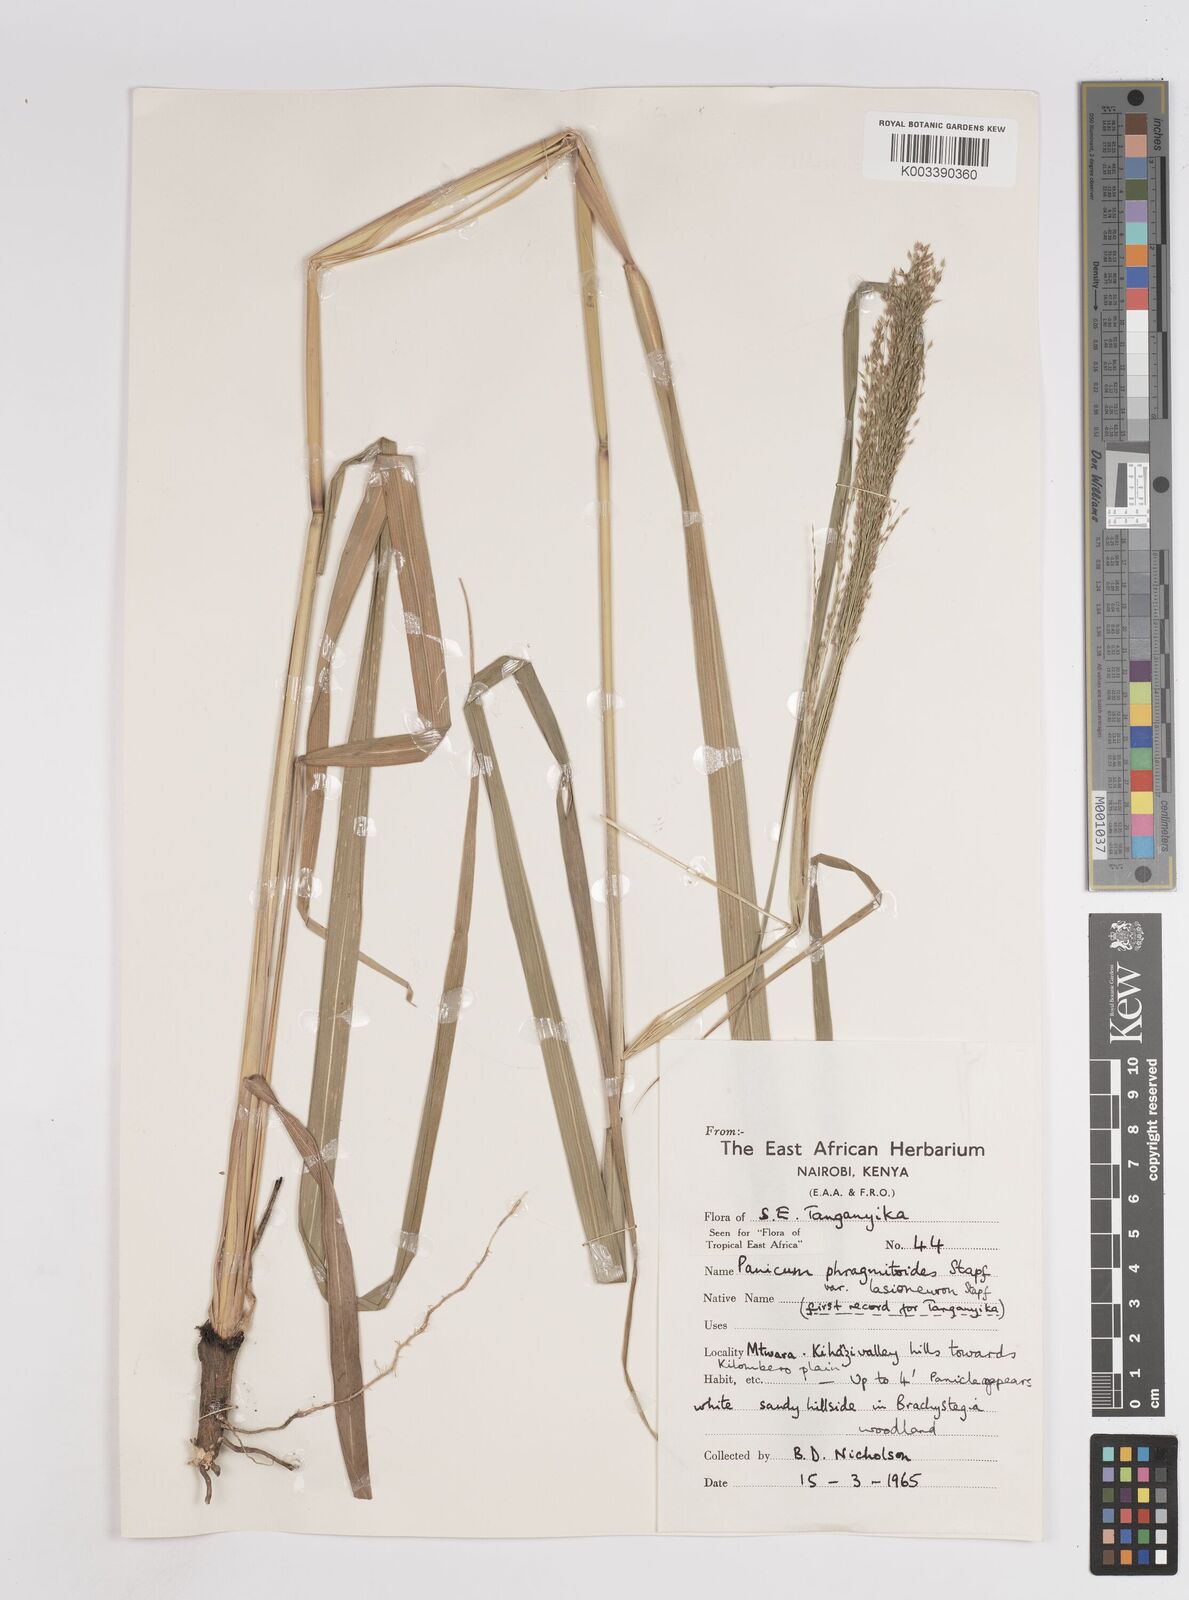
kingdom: Plantae
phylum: Tracheophyta
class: Liliopsida
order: Poales
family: Poaceae
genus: Panicum
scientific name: Panicum phragmitoides
